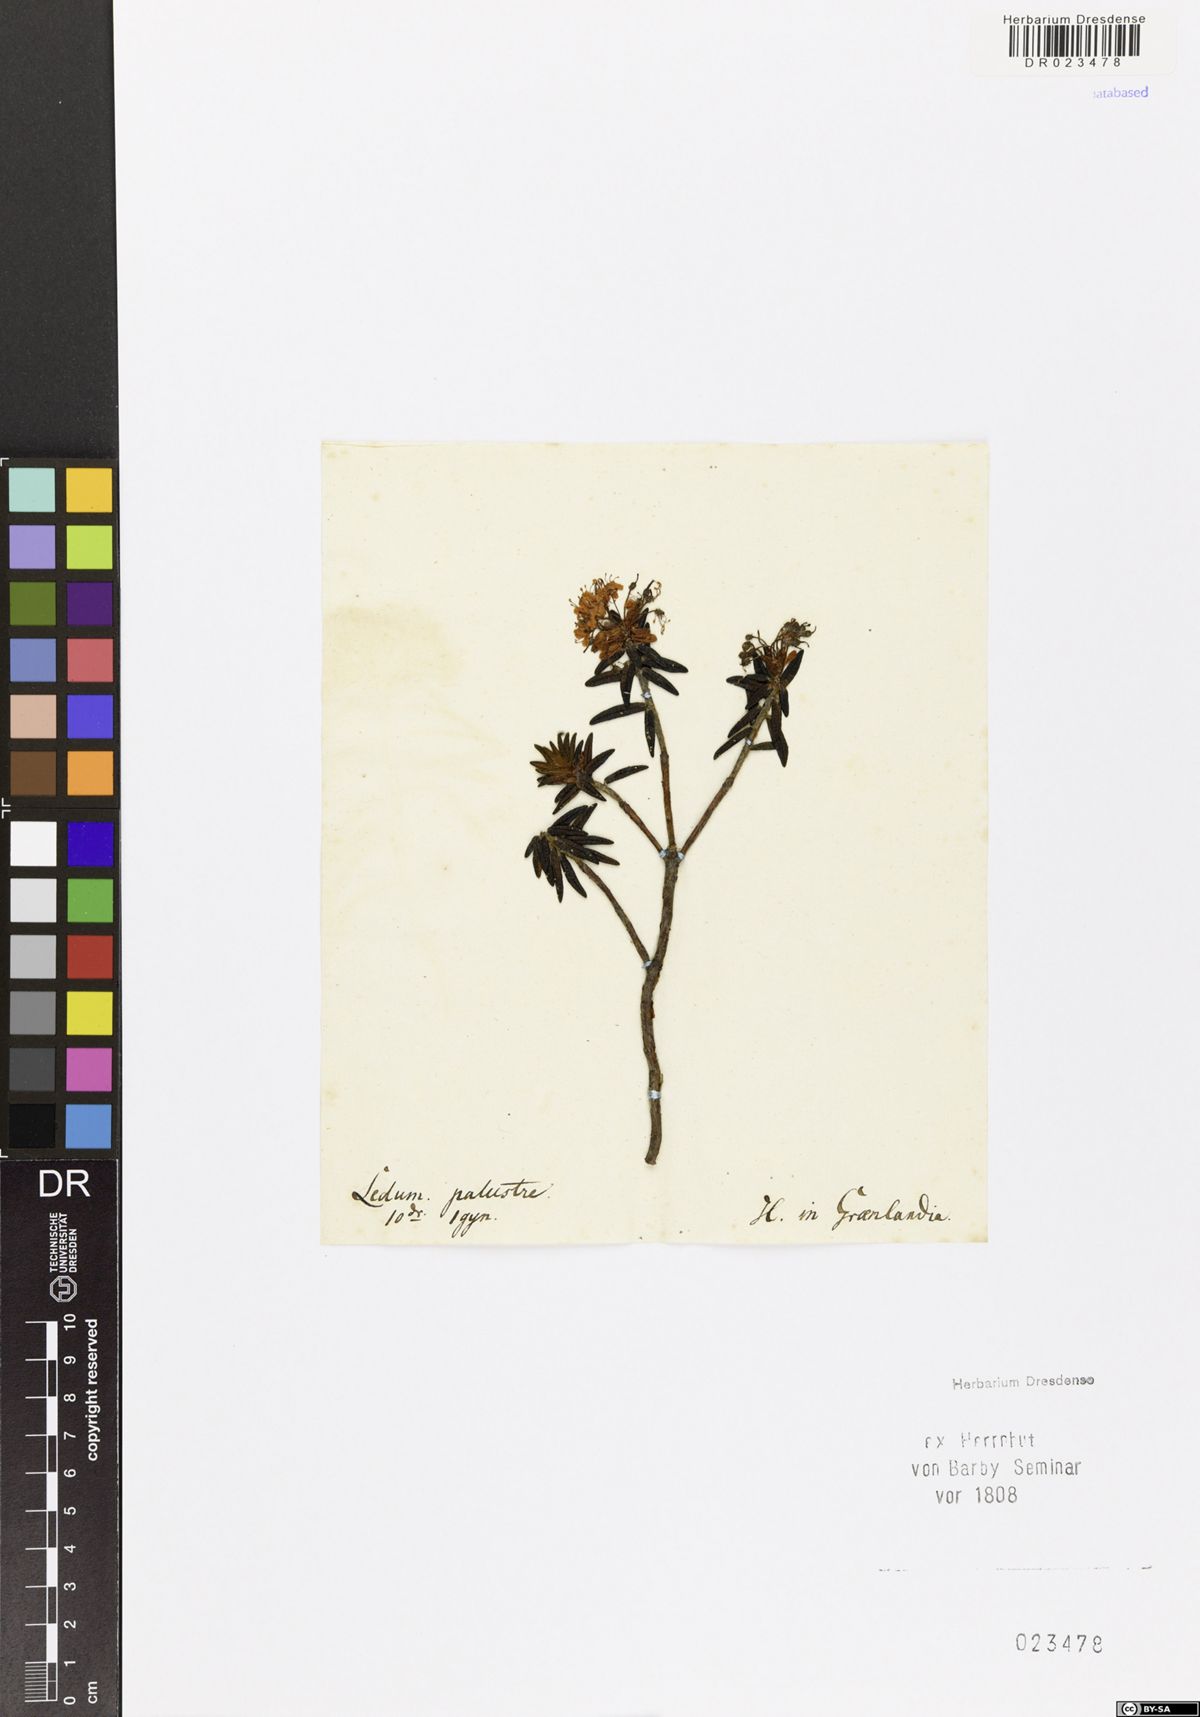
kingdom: Plantae
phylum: Tracheophyta
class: Magnoliopsida
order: Ericales
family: Ericaceae
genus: Rhododendron
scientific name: Rhododendron tomentosum
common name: Marsh labrador tea
